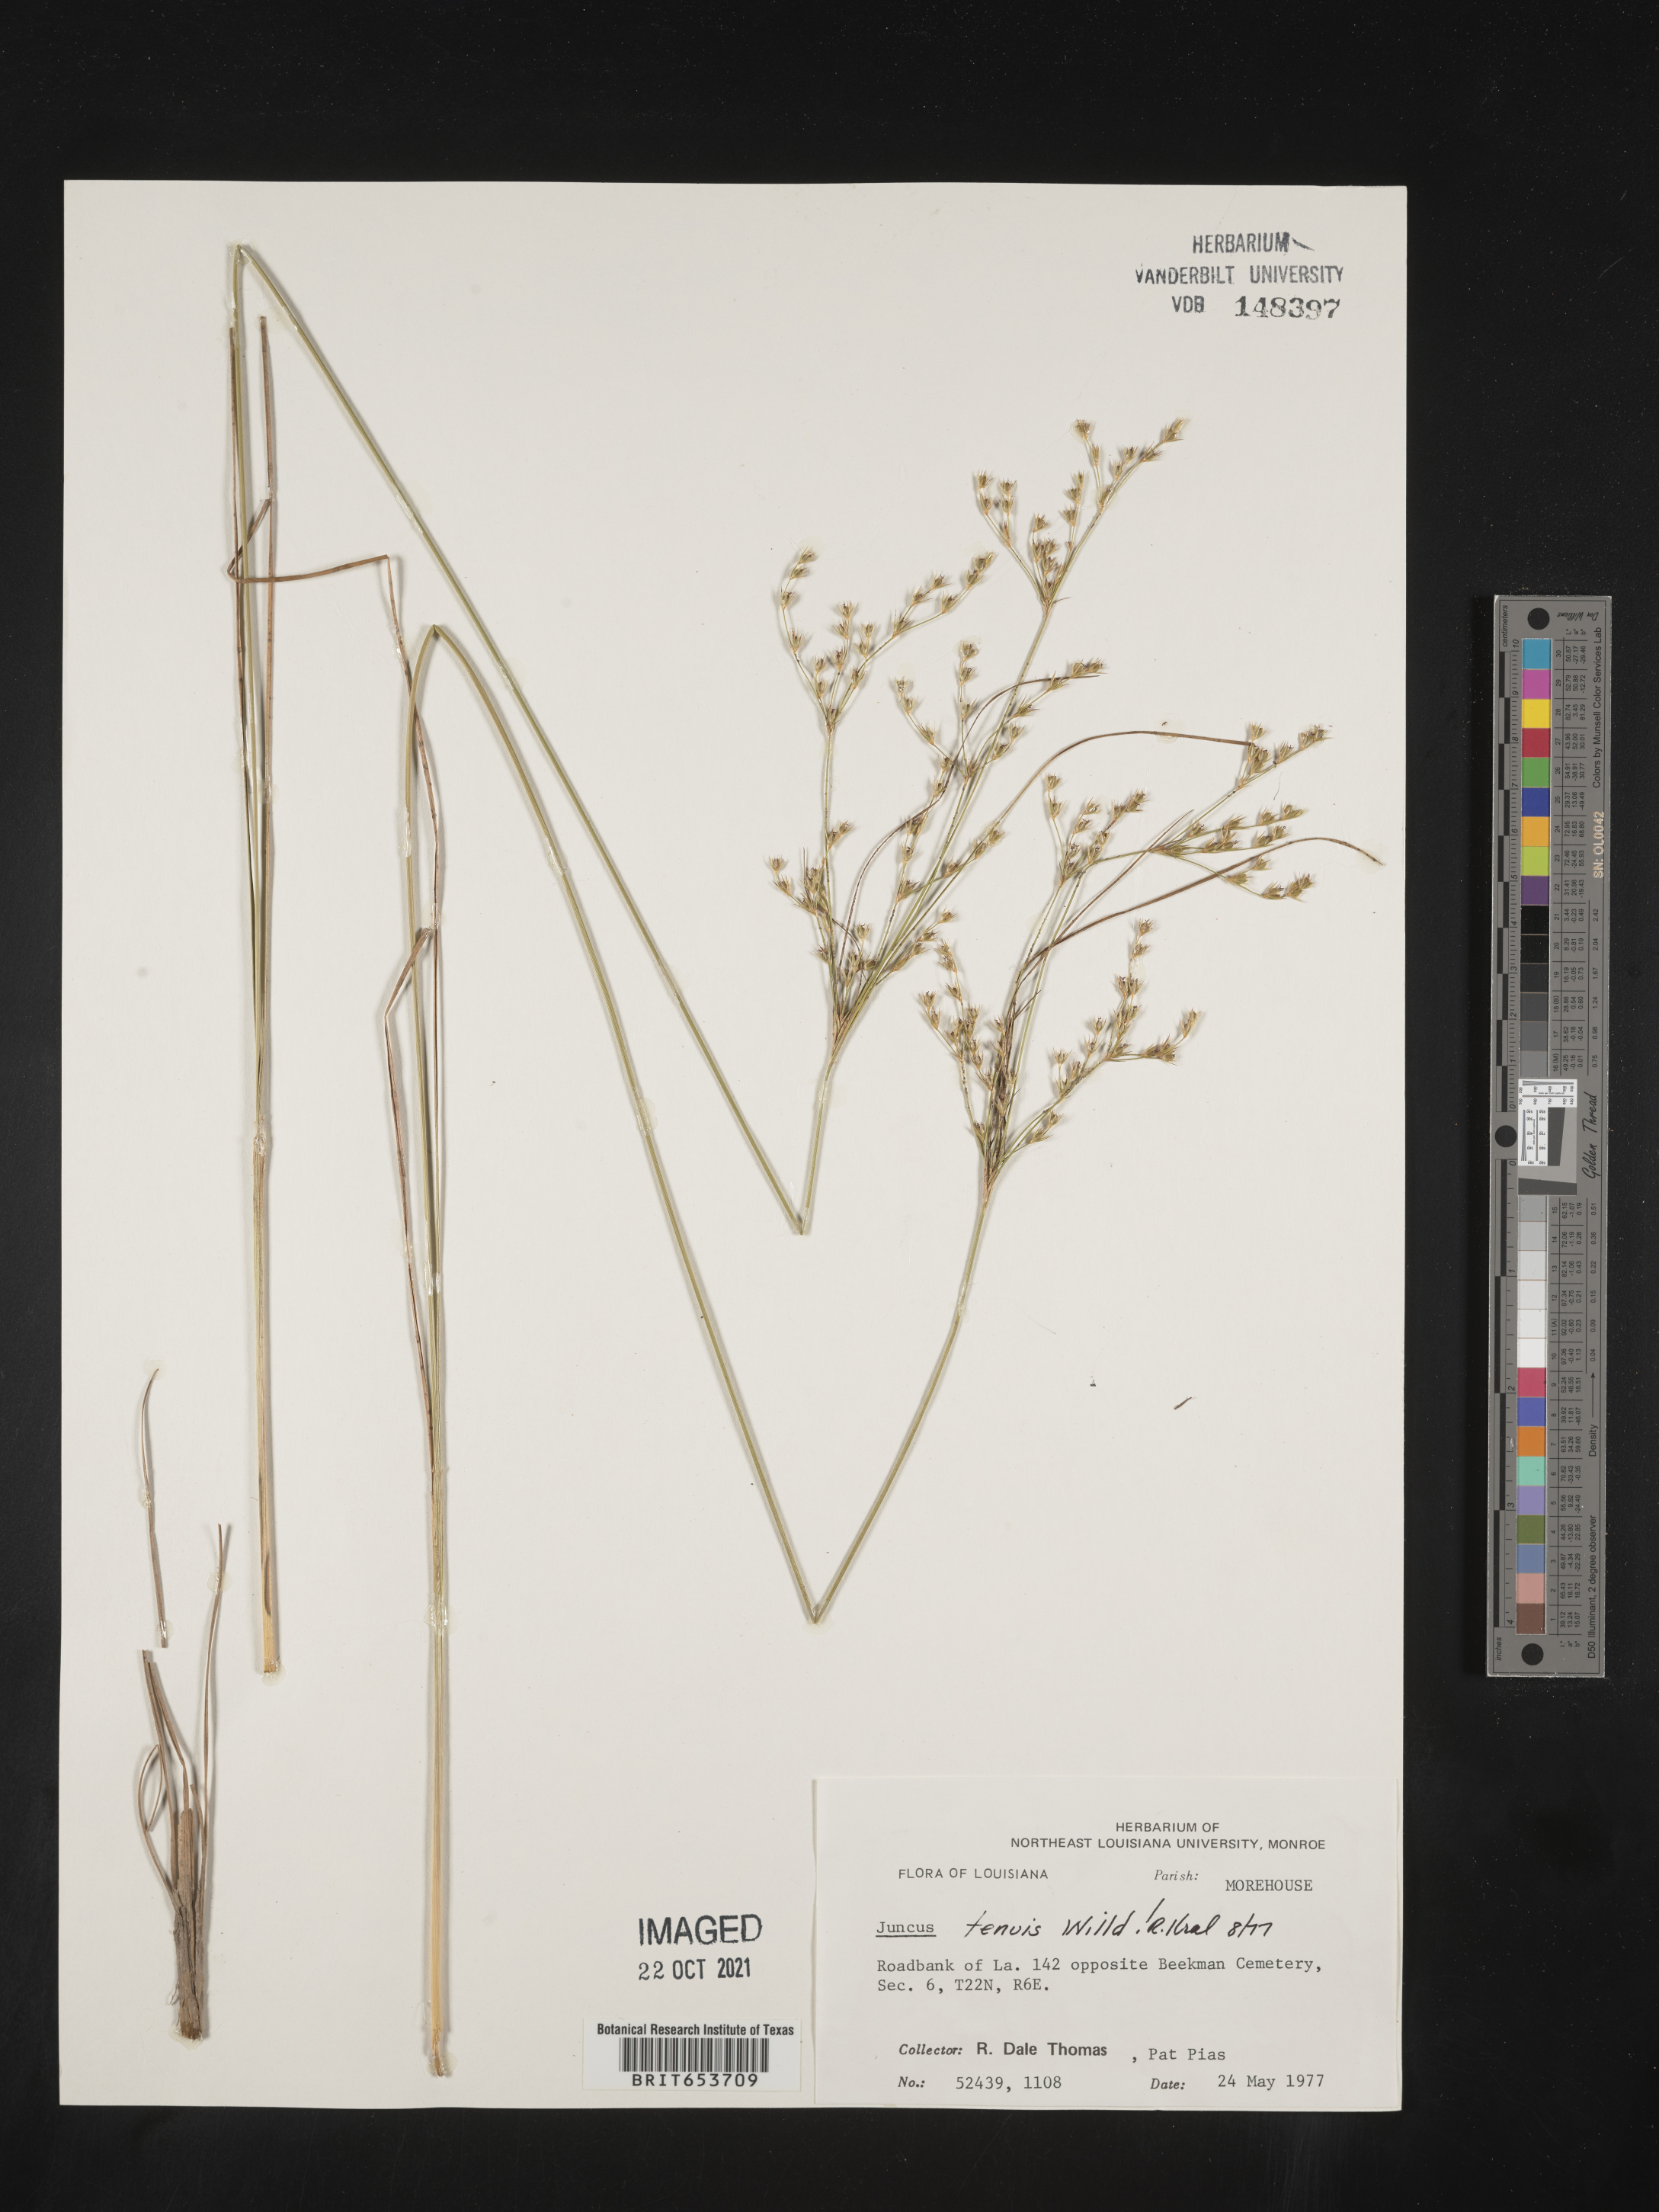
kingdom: Plantae
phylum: Tracheophyta
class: Liliopsida
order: Poales
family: Juncaceae
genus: Juncus
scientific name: Juncus tenuis
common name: Slender rush
